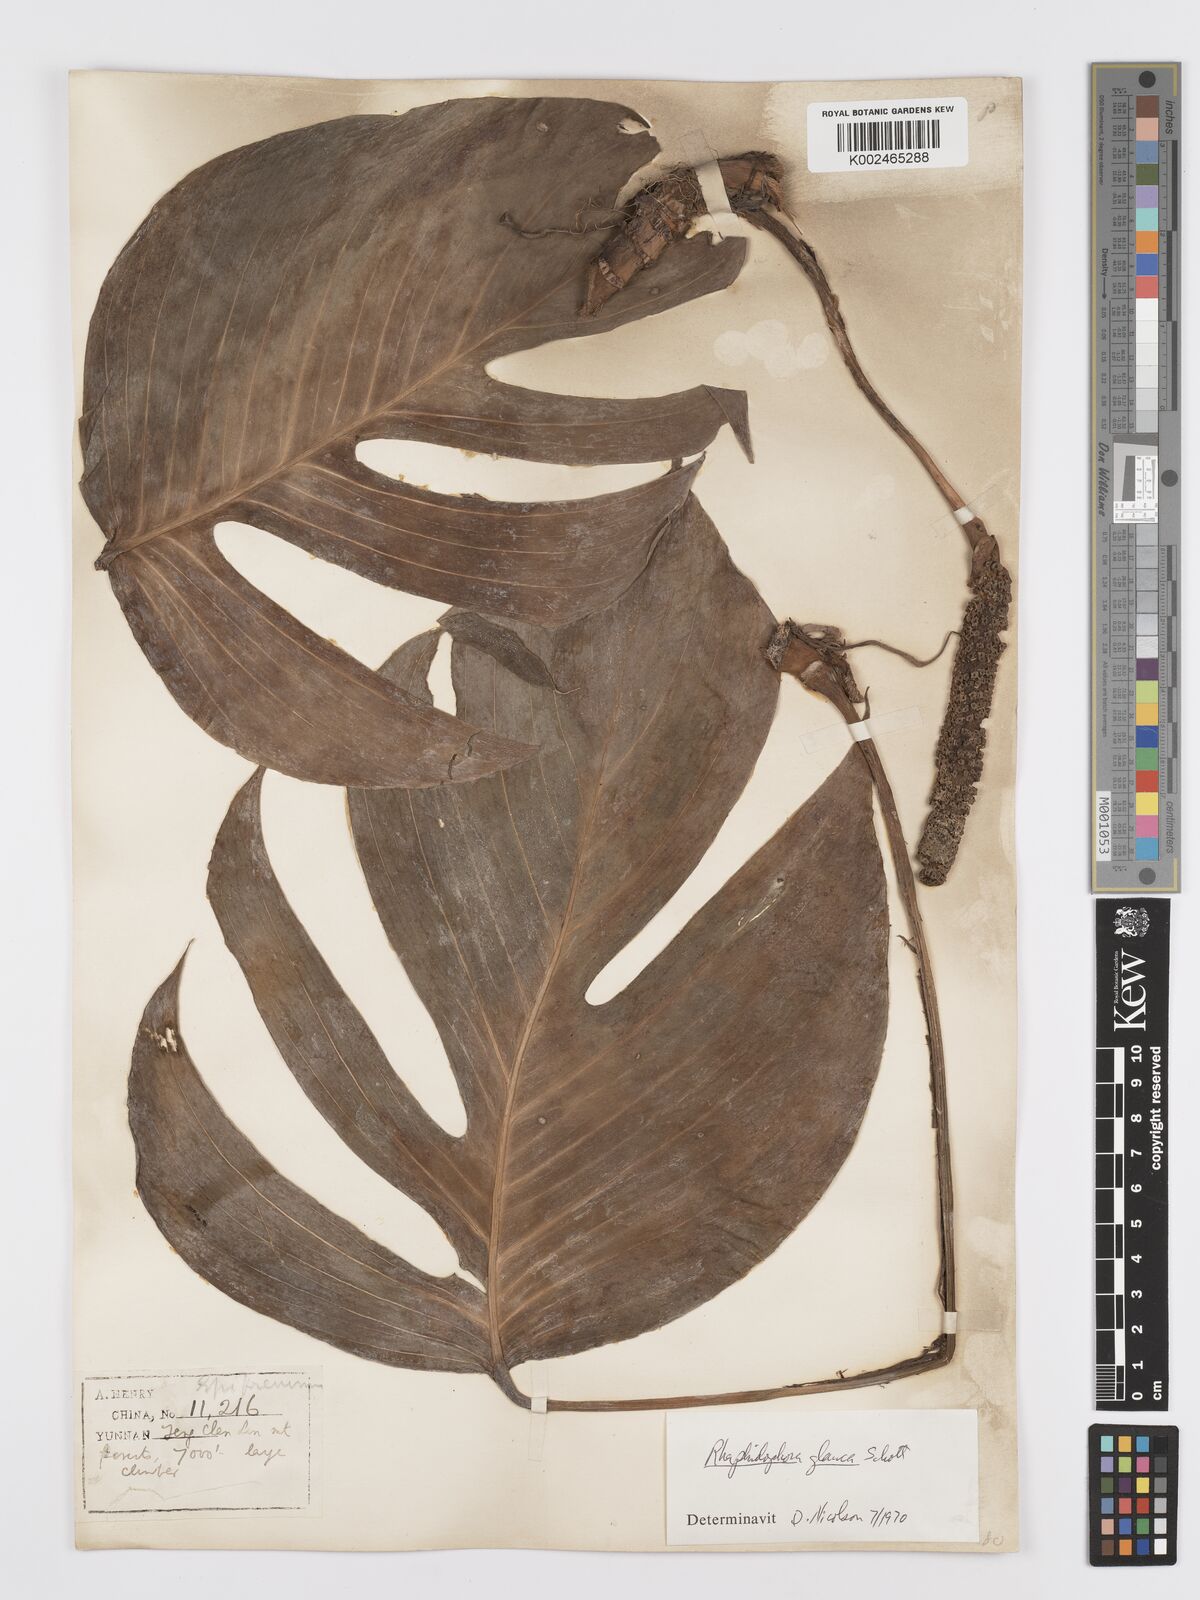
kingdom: Plantae
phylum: Tracheophyta
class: Liliopsida
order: Alismatales
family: Araceae
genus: Rhaphidophora
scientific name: Rhaphidophora glauca
